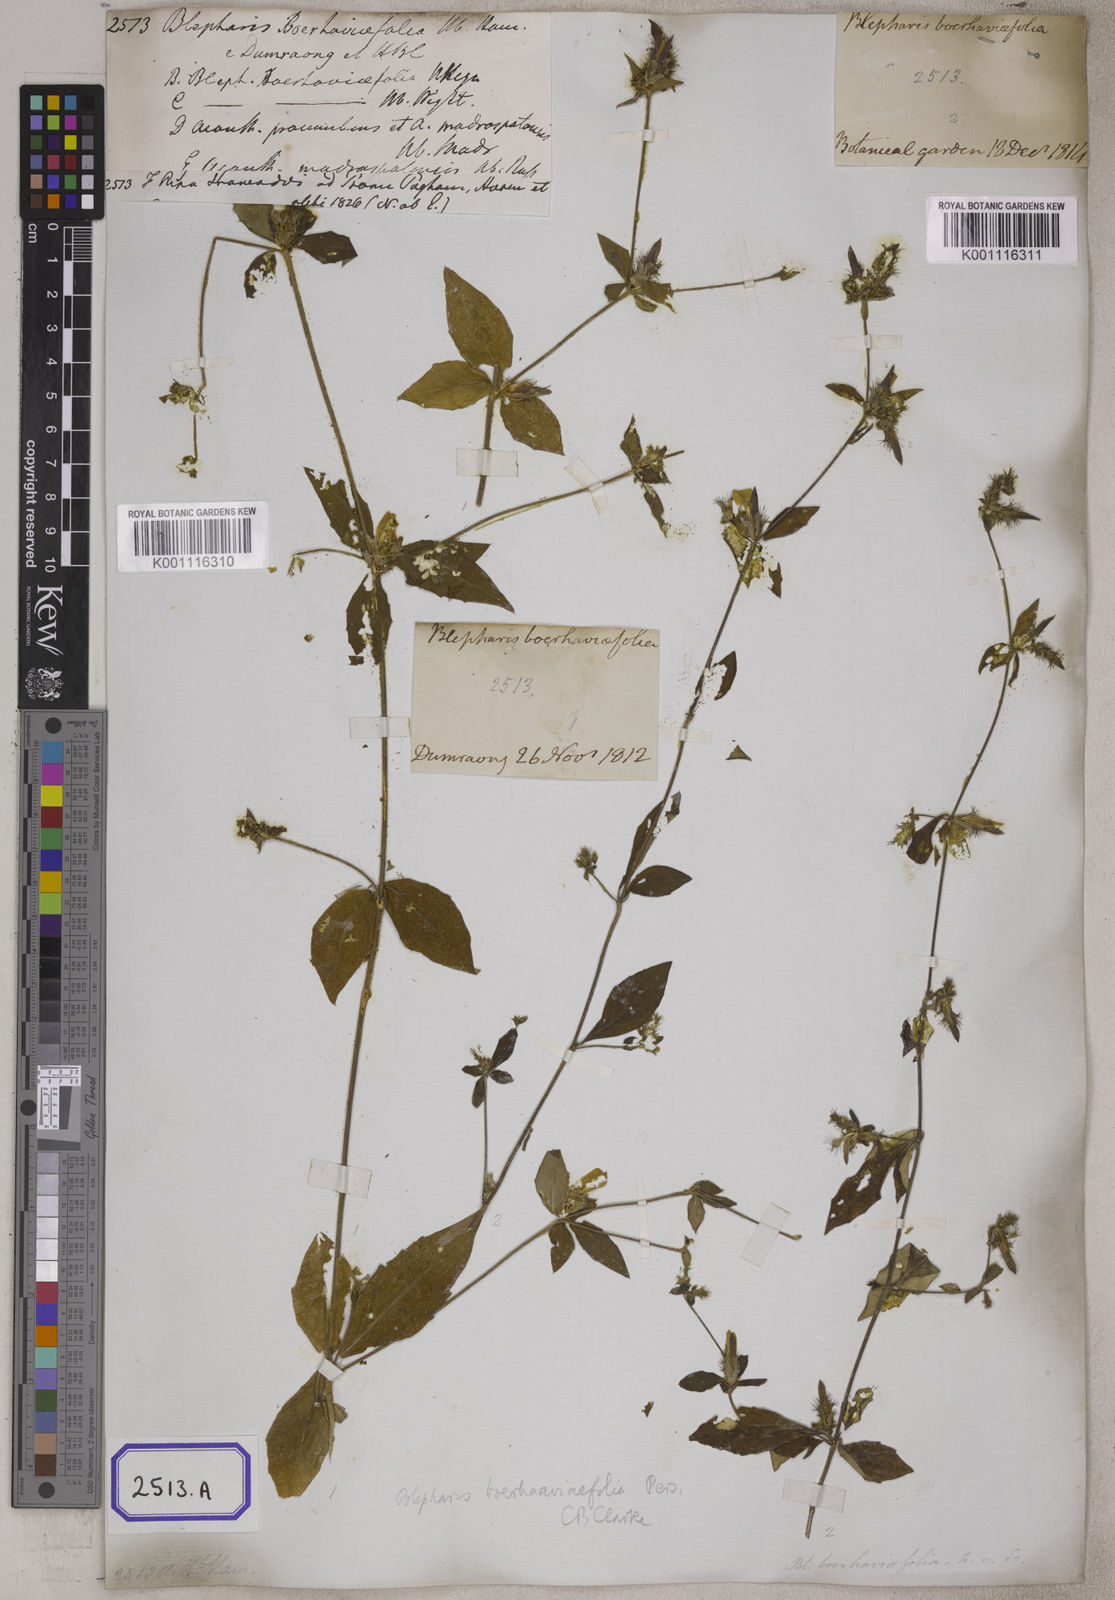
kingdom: Plantae
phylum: Tracheophyta
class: Magnoliopsida
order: Lamiales
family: Acanthaceae
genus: Blepharis
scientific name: Blepharis
